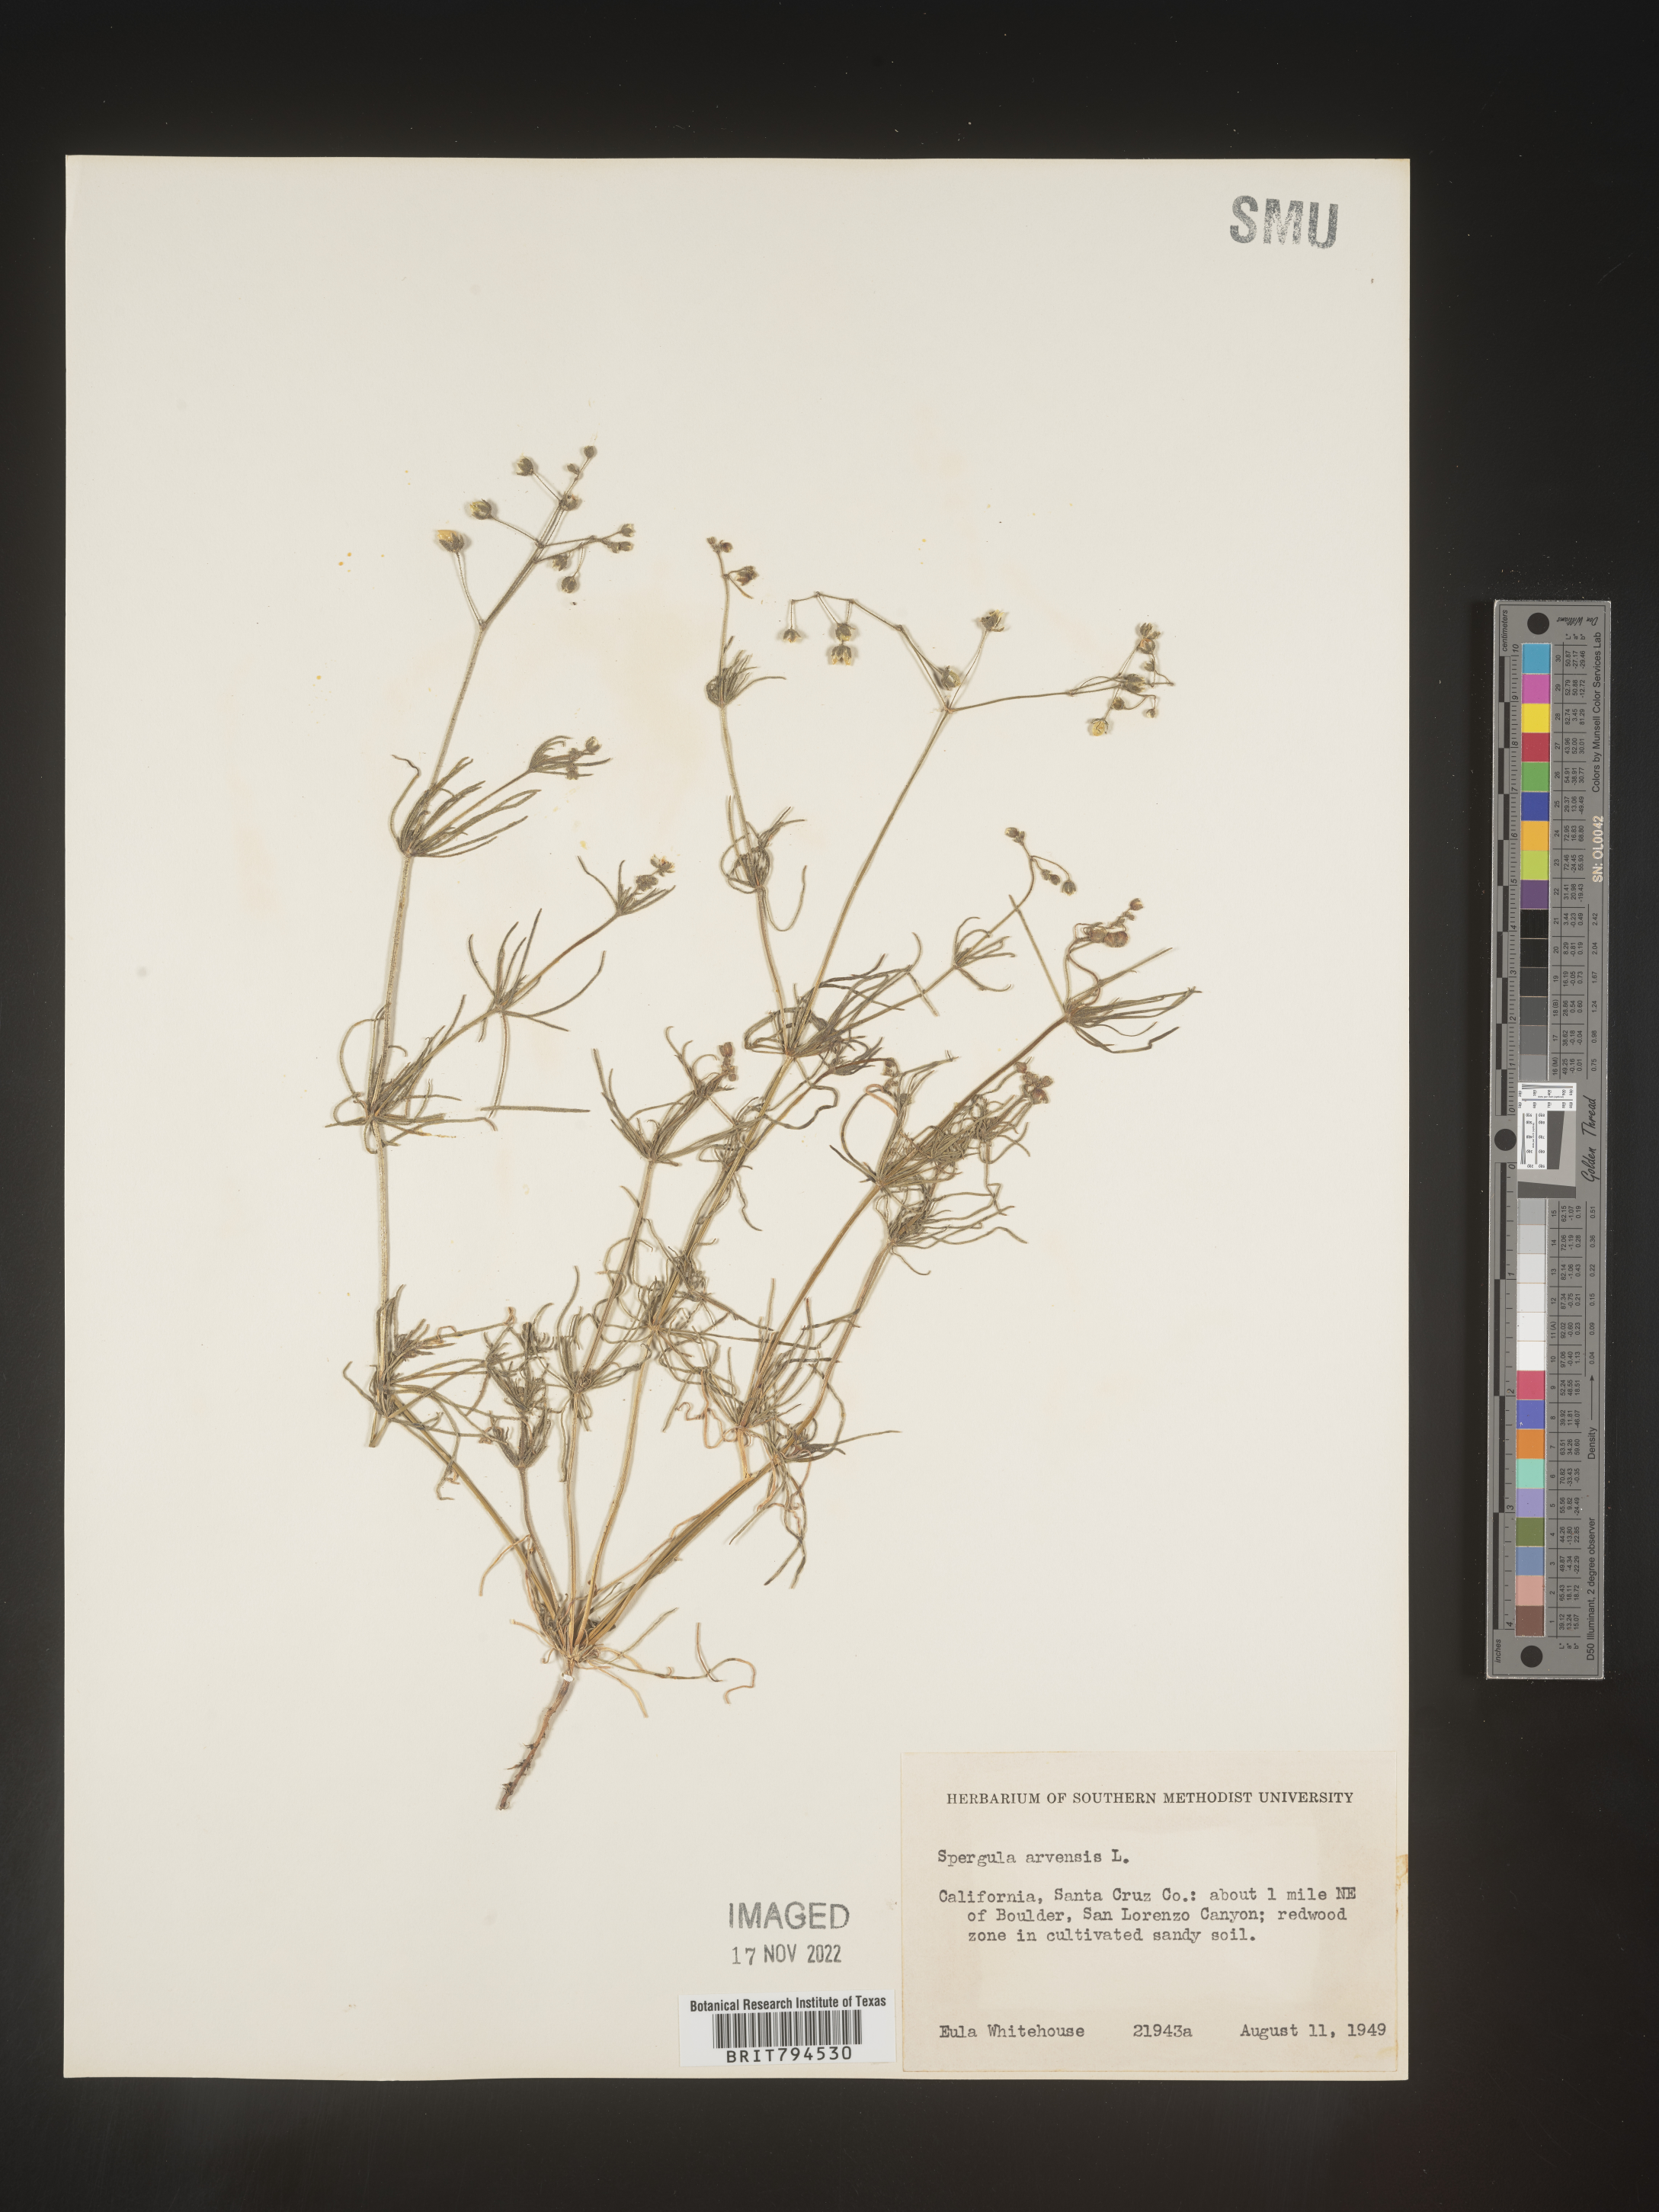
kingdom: Plantae
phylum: Tracheophyta
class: Magnoliopsida
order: Caryophyllales
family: Caryophyllaceae
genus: Spergula
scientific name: Spergula arvensis
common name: Corn spurrey
